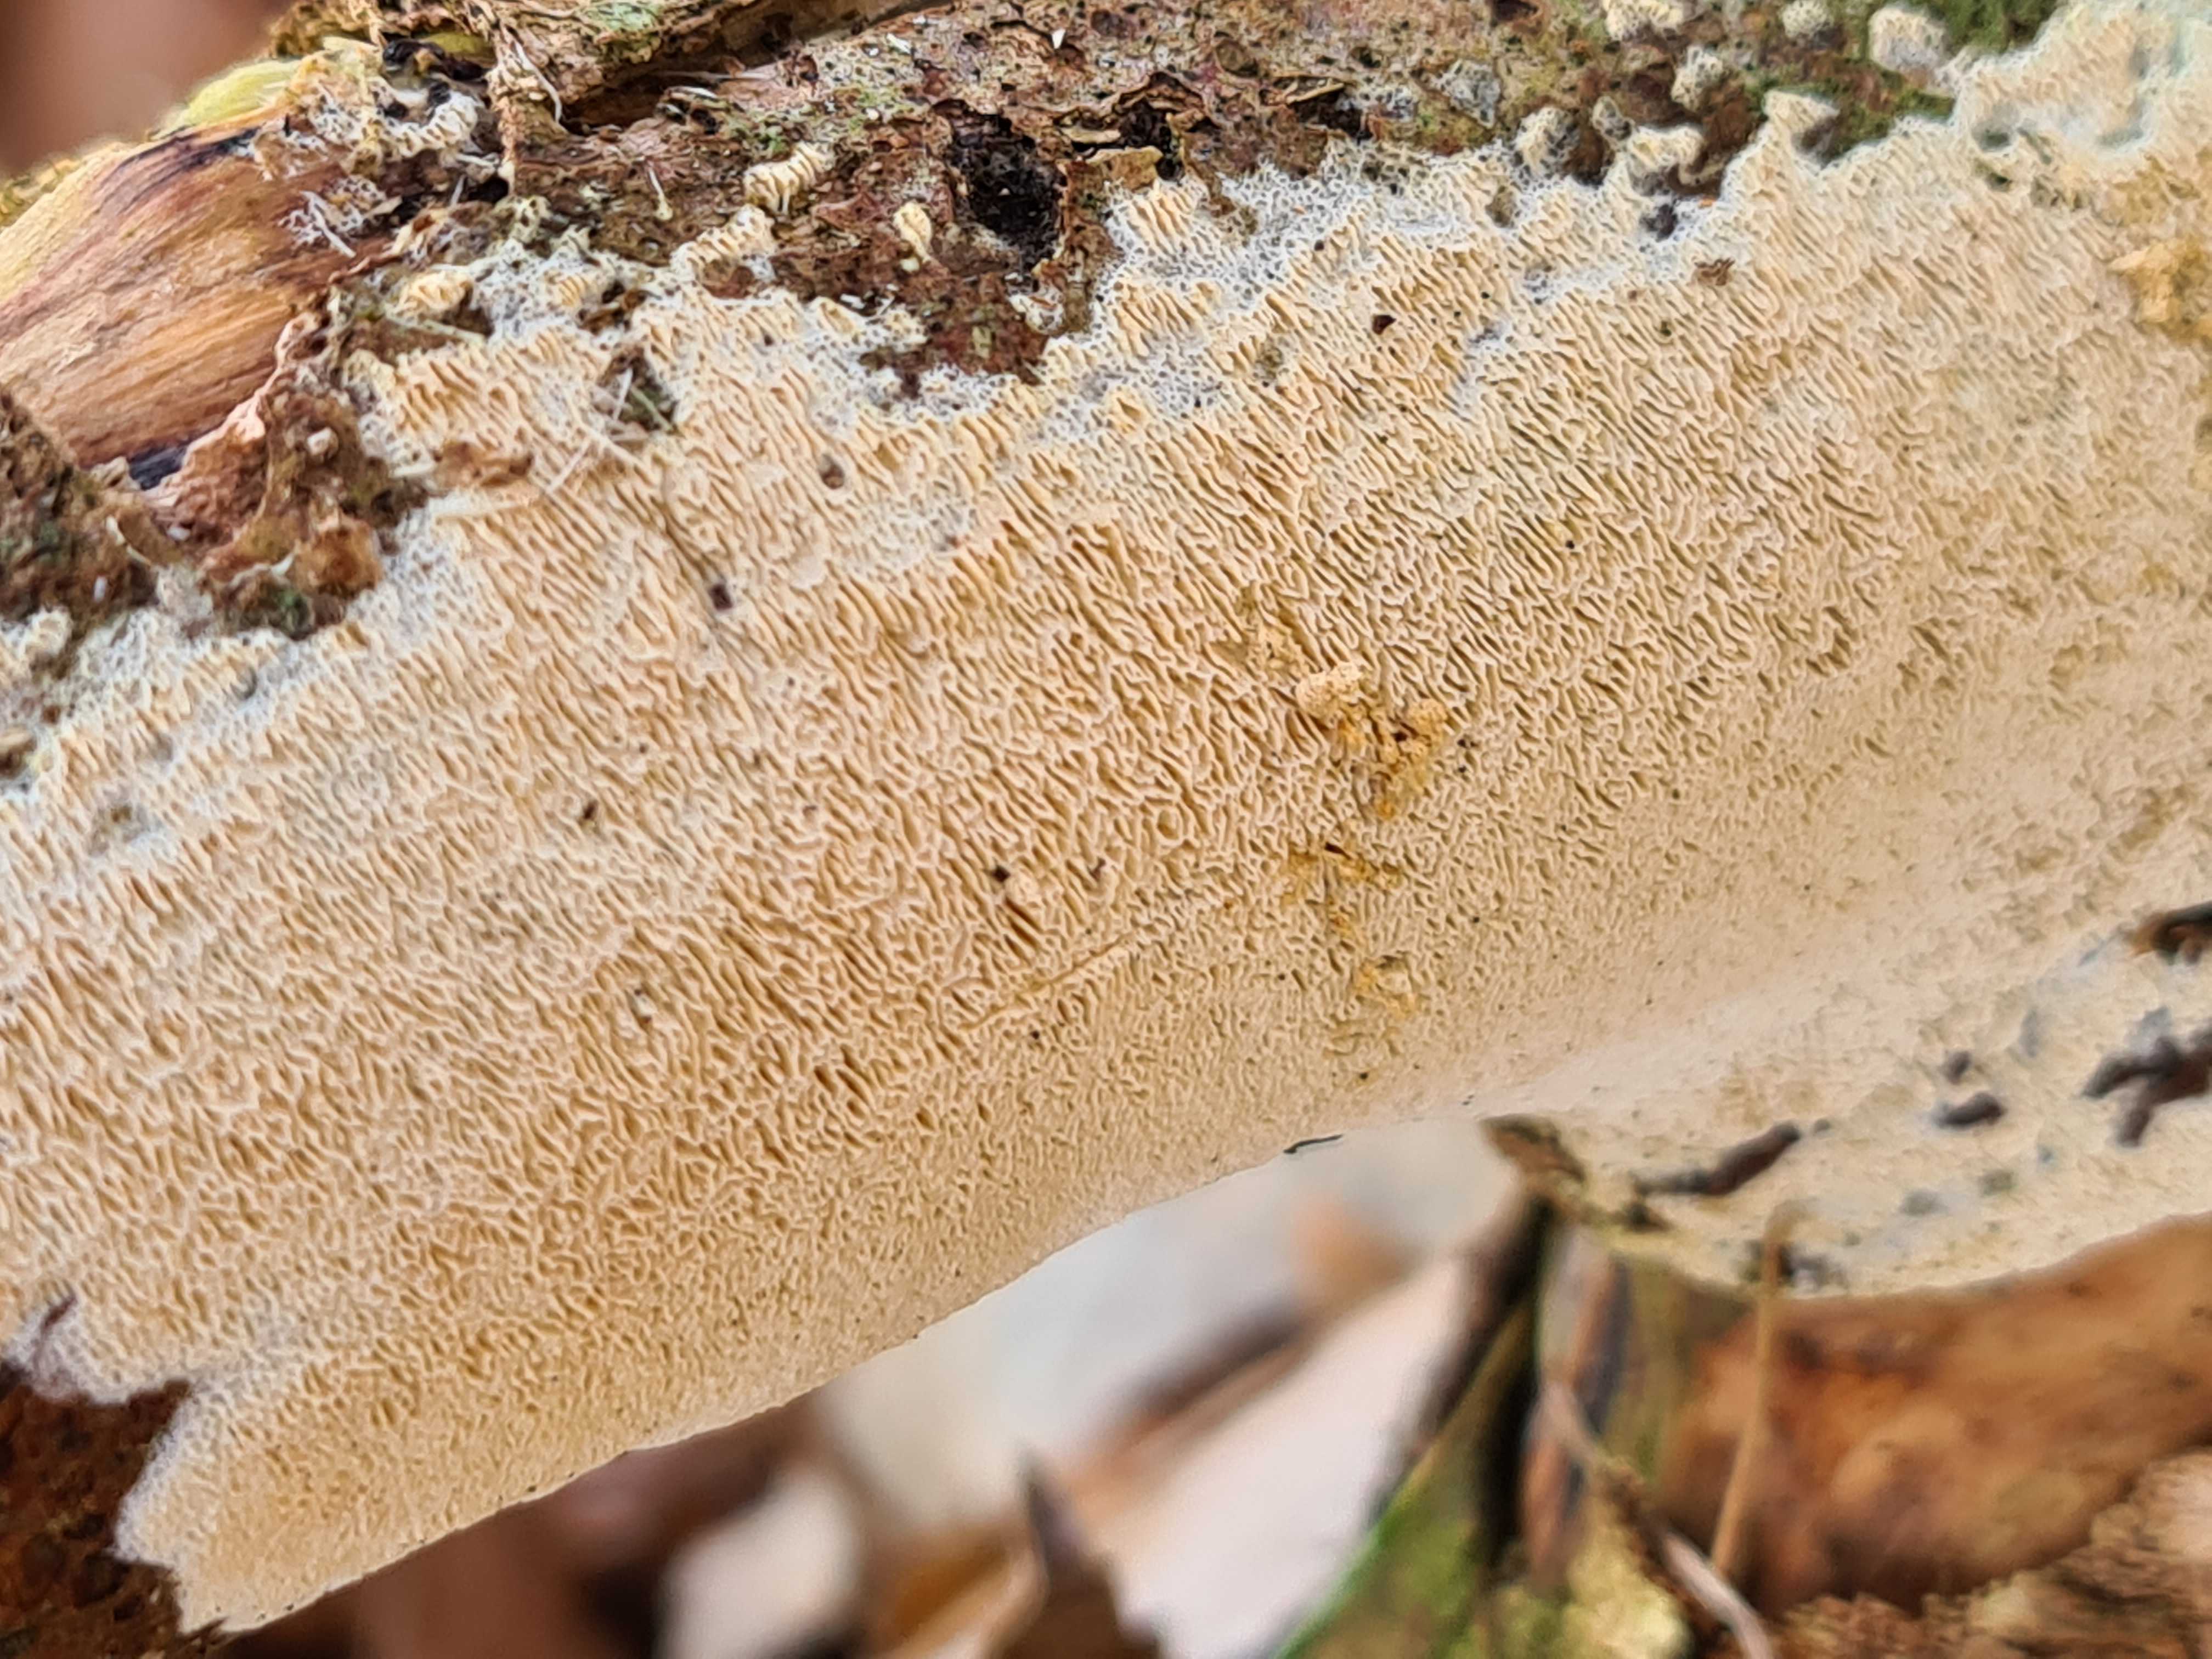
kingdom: Fungi
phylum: Basidiomycota
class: Agaricomycetes
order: Hymenochaetales
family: Schizoporaceae
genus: Xylodon
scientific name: Xylodon subtropicus
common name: labyrint-tandsvamp
